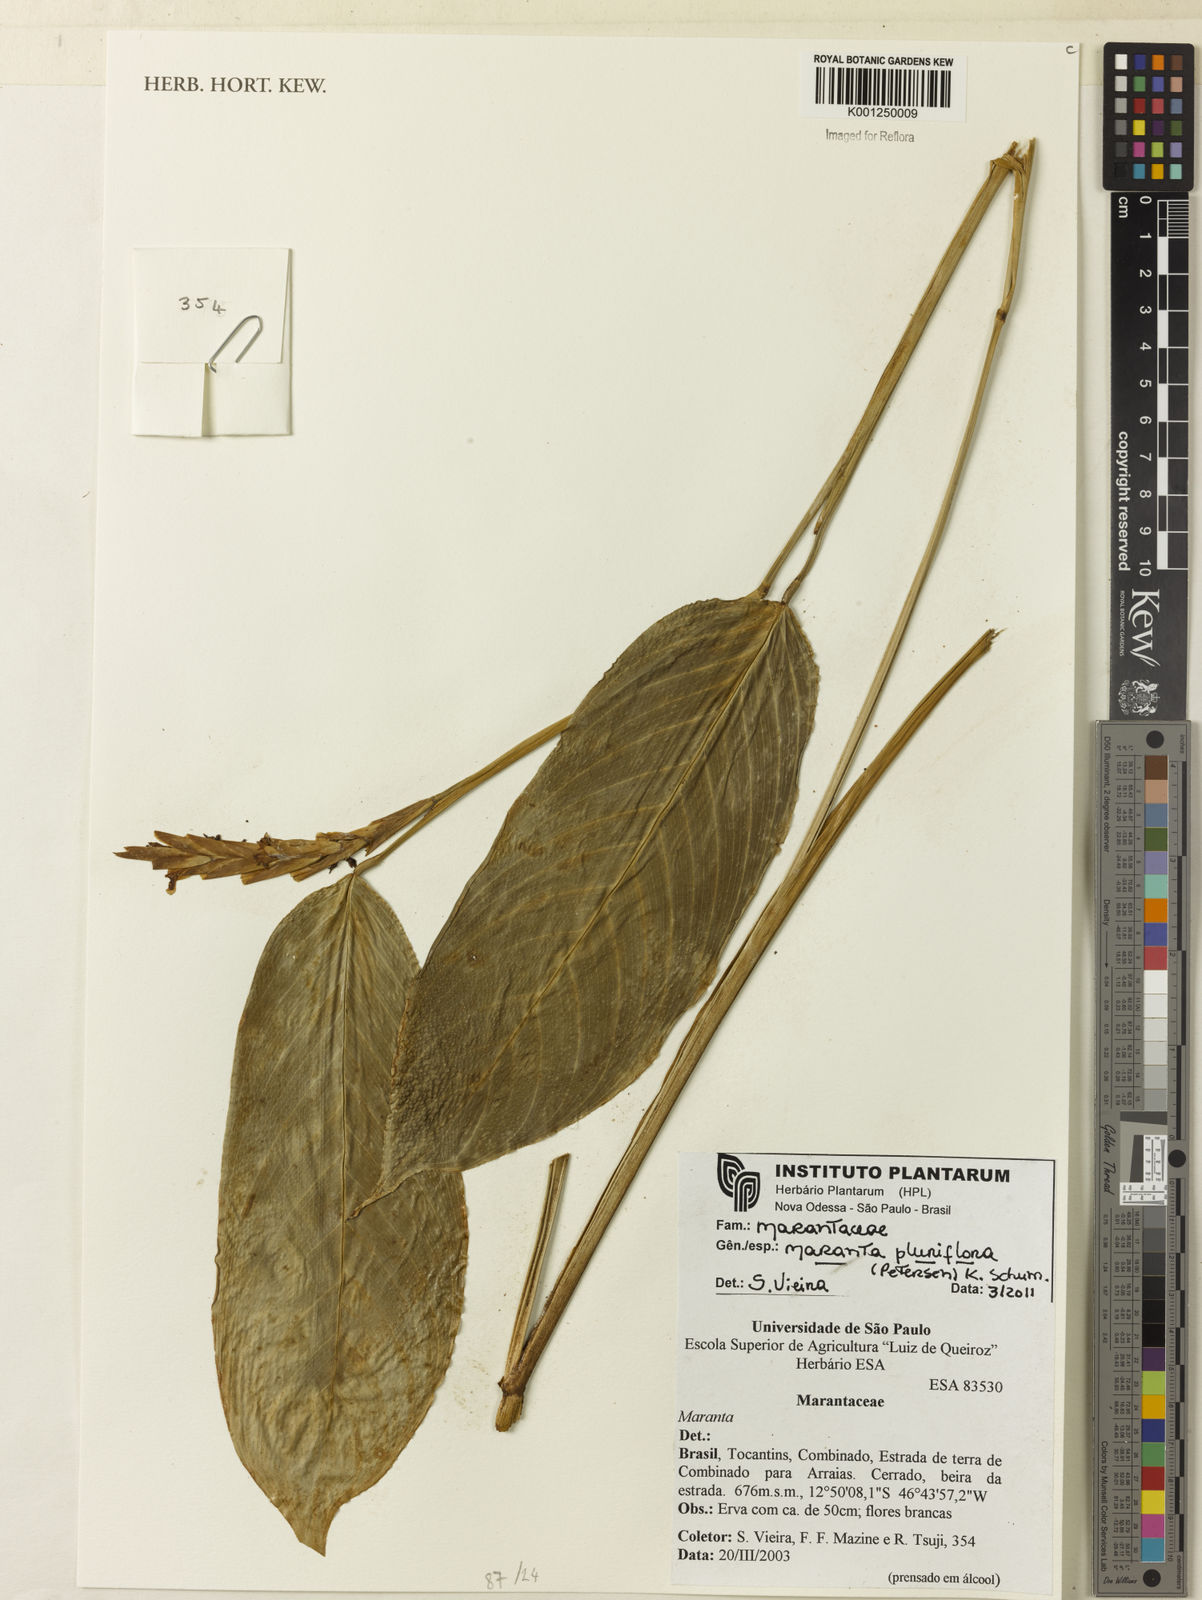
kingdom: Plantae
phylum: Tracheophyta
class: Liliopsida
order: Zingiberales
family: Marantaceae
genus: Maranta
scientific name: Maranta pluriflora
